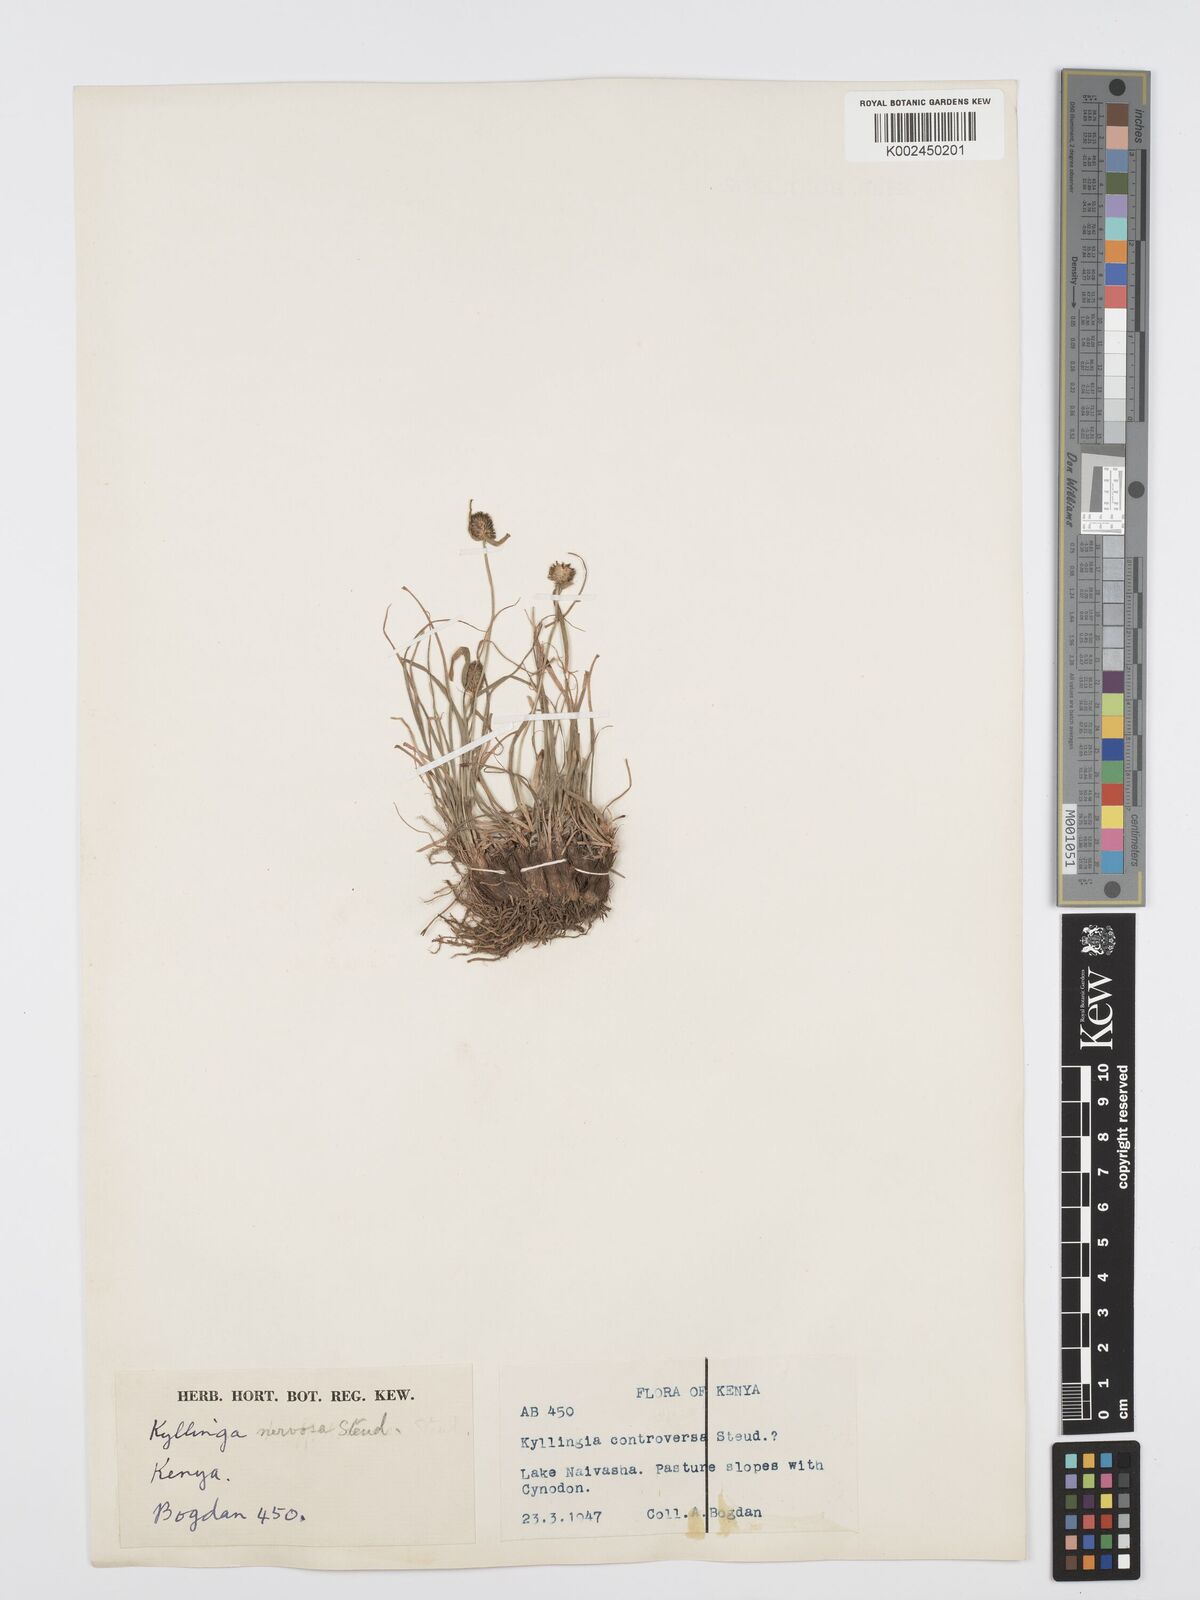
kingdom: Plantae
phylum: Tracheophyta
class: Liliopsida
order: Poales
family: Cyperaceae
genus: Cyperus
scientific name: Cyperus
